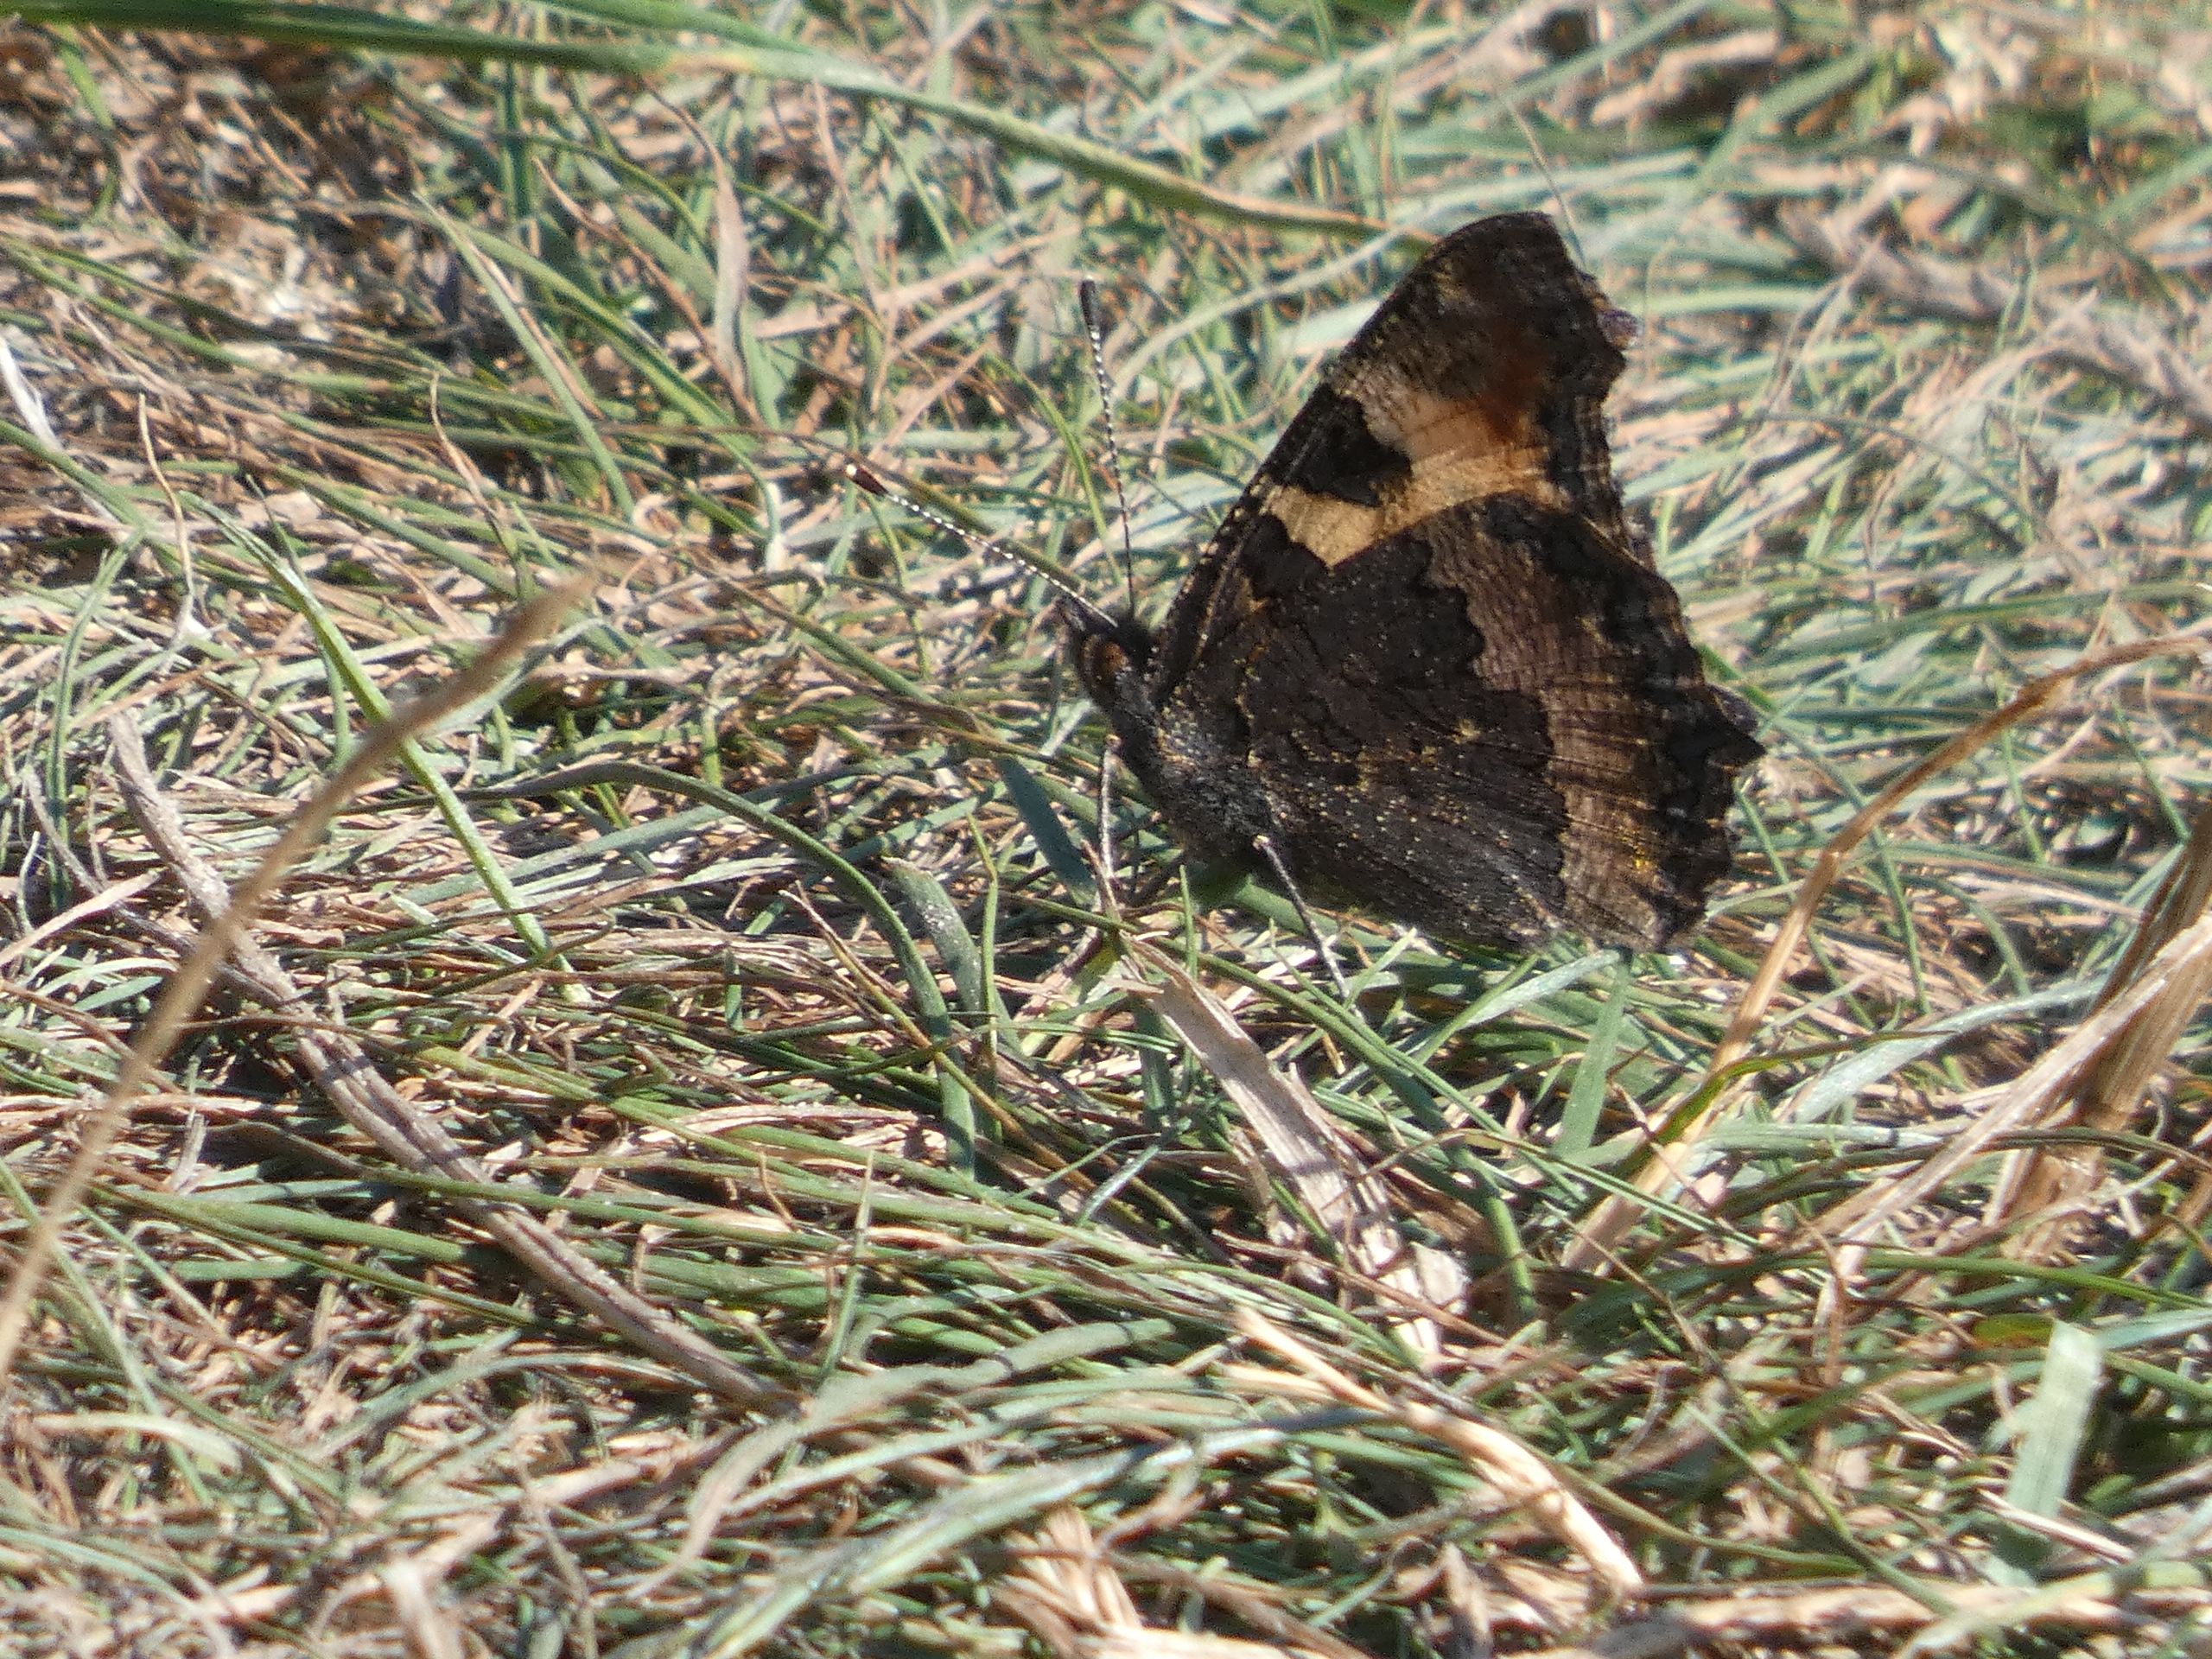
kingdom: Animalia
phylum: Arthropoda
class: Insecta
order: Lepidoptera
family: Nymphalidae
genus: Aglais
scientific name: Aglais urticae
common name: Nældens takvinge
